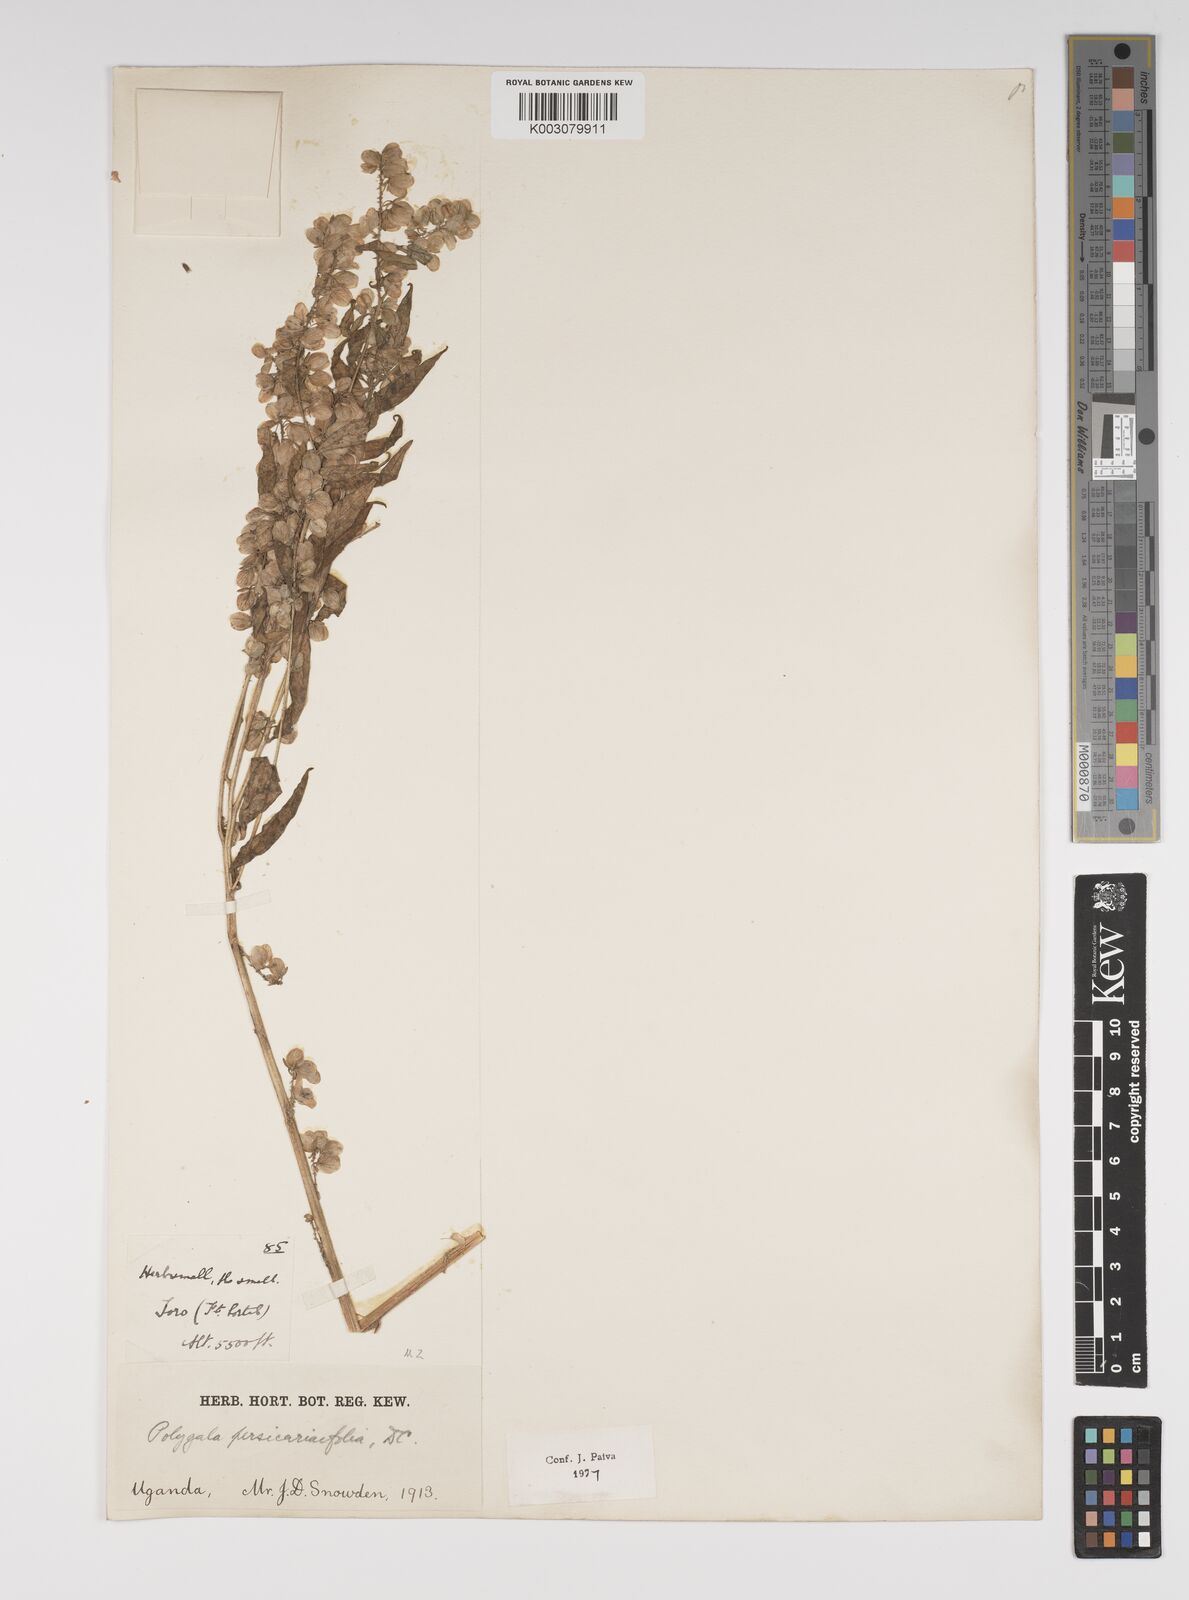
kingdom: Plantae
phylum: Tracheophyta
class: Magnoliopsida
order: Fabales
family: Polygalaceae
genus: Polygala
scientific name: Polygala persicariifolia
